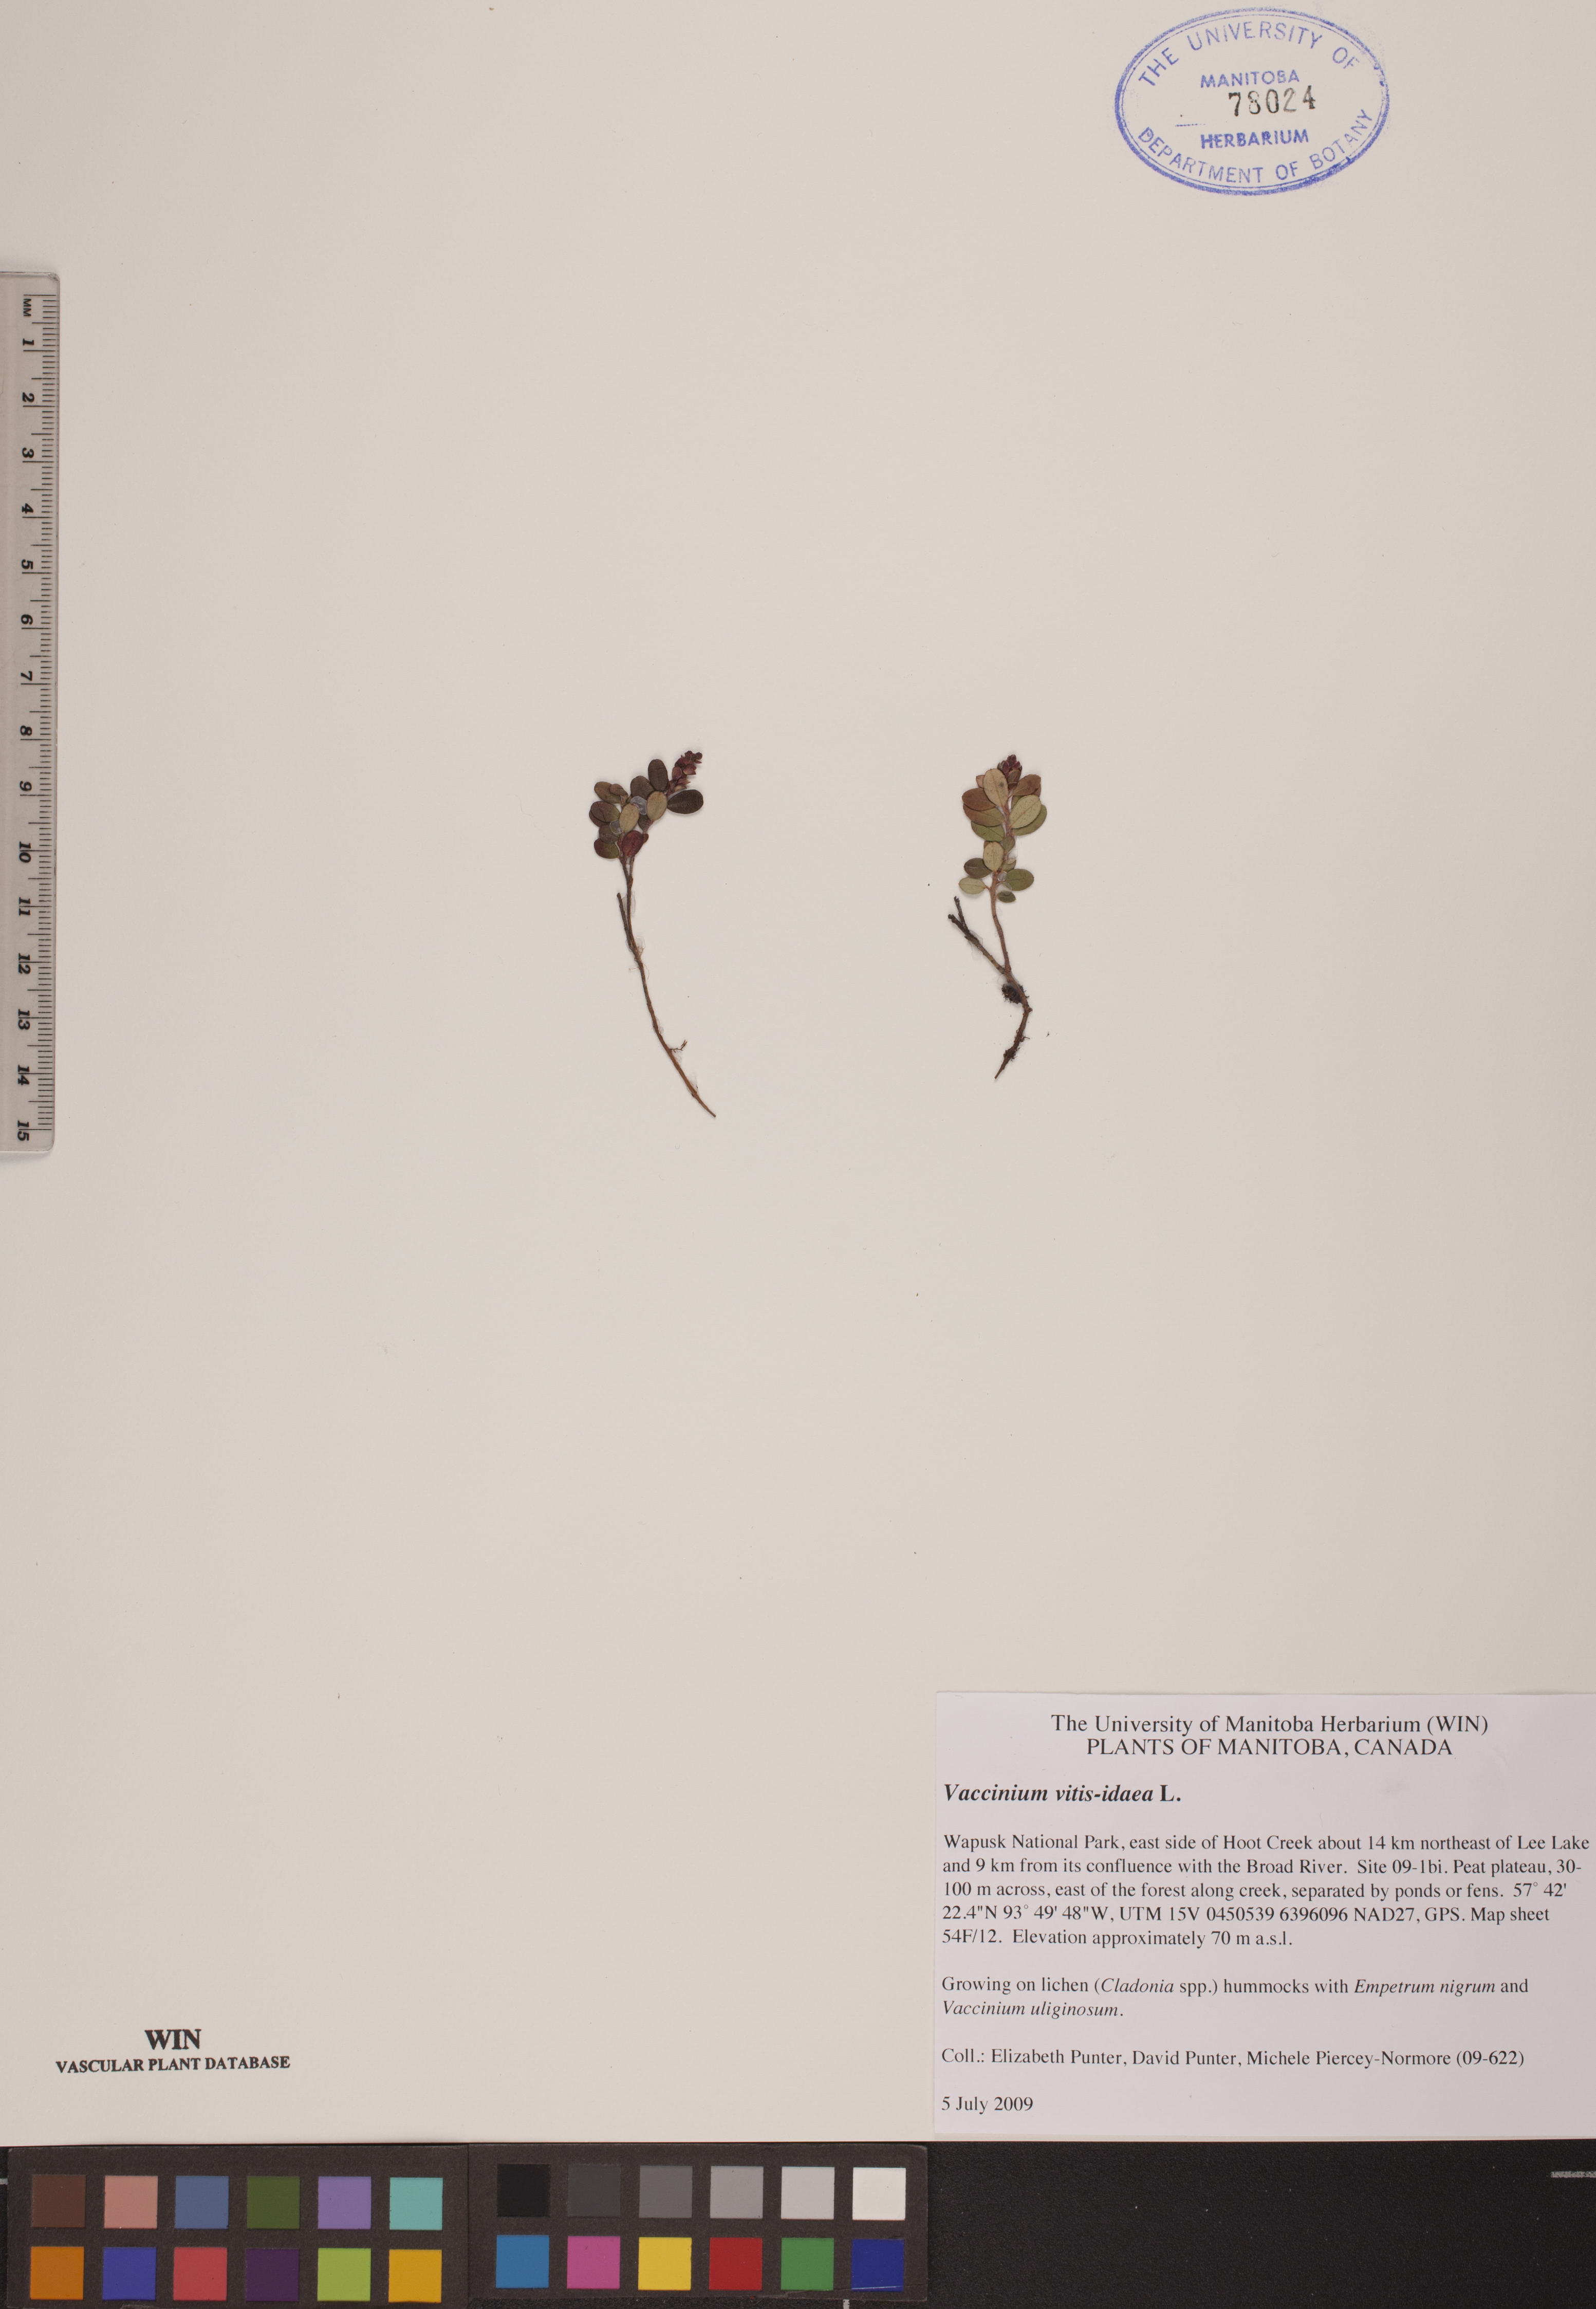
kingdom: Plantae
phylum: Tracheophyta
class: Magnoliopsida
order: Ericales
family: Ericaceae
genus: Vaccinium
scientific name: Vaccinium vitis-idaea
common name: Cowberry
